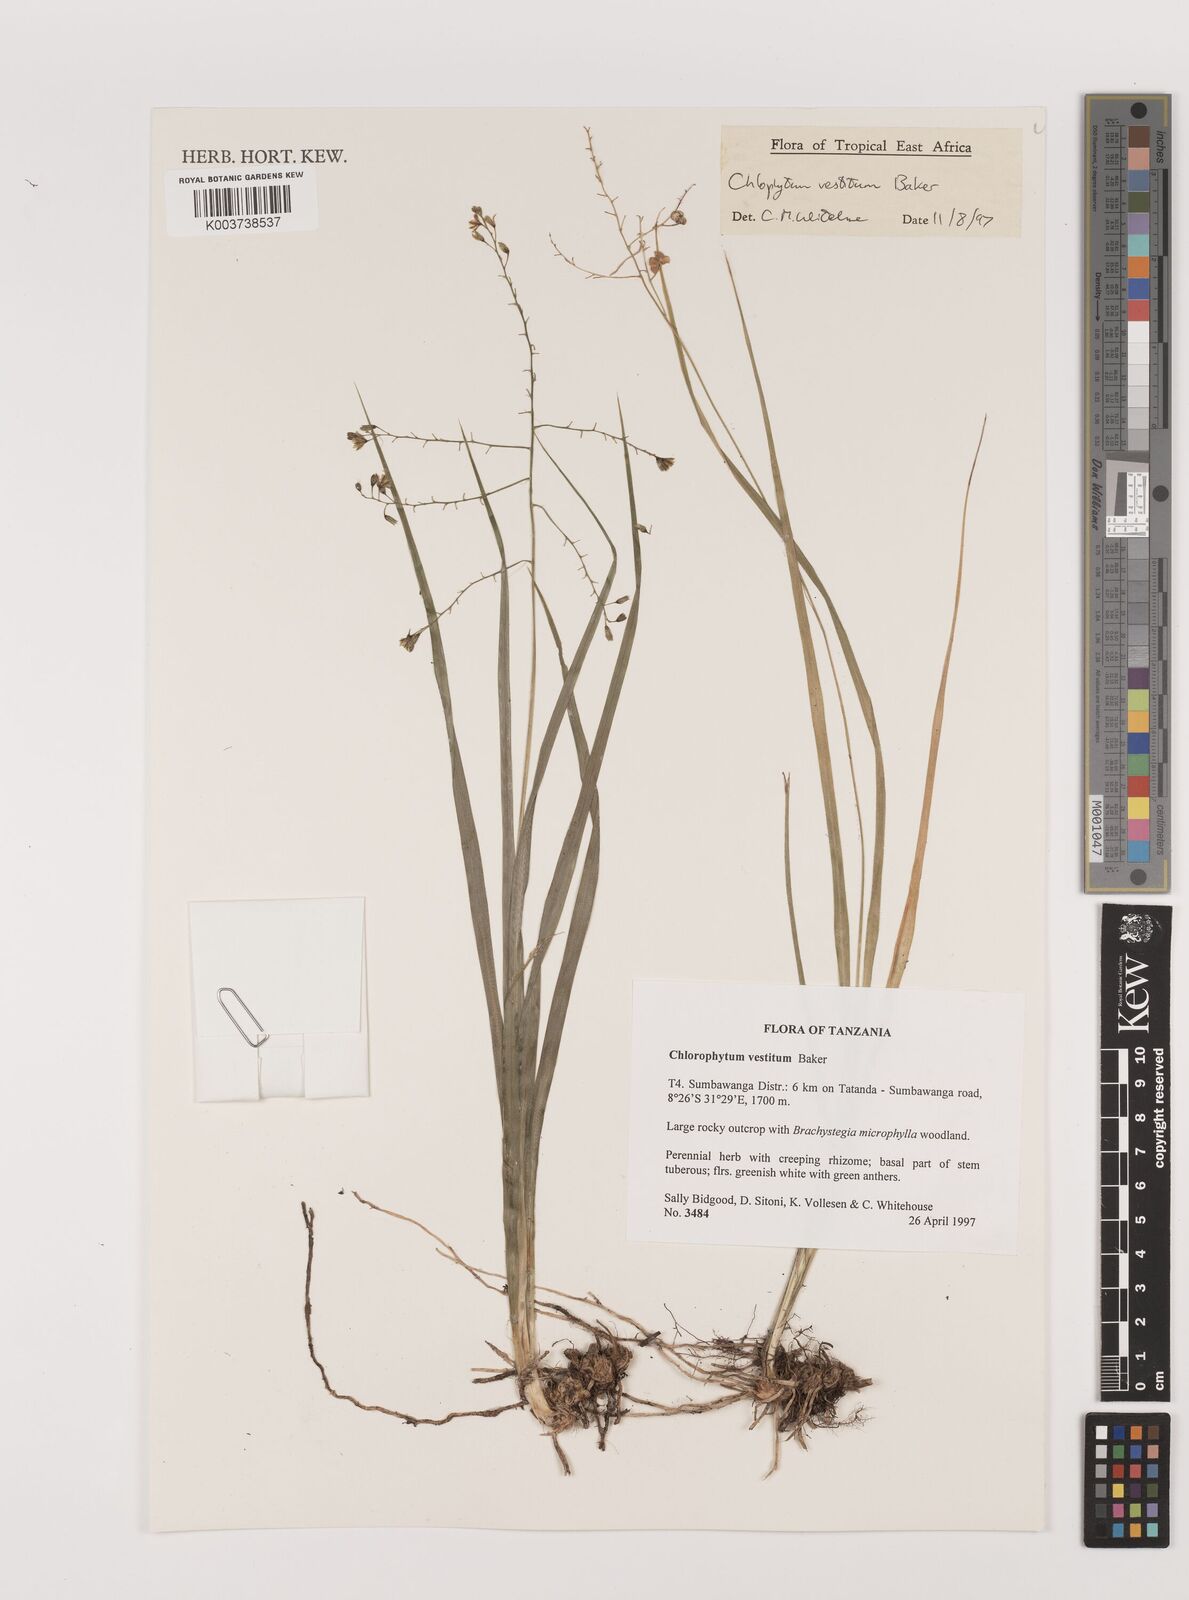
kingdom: Plantae
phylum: Tracheophyta
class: Liliopsida
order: Asparagales
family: Asparagaceae
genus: Chlorophytum
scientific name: Chlorophytum vestitum
